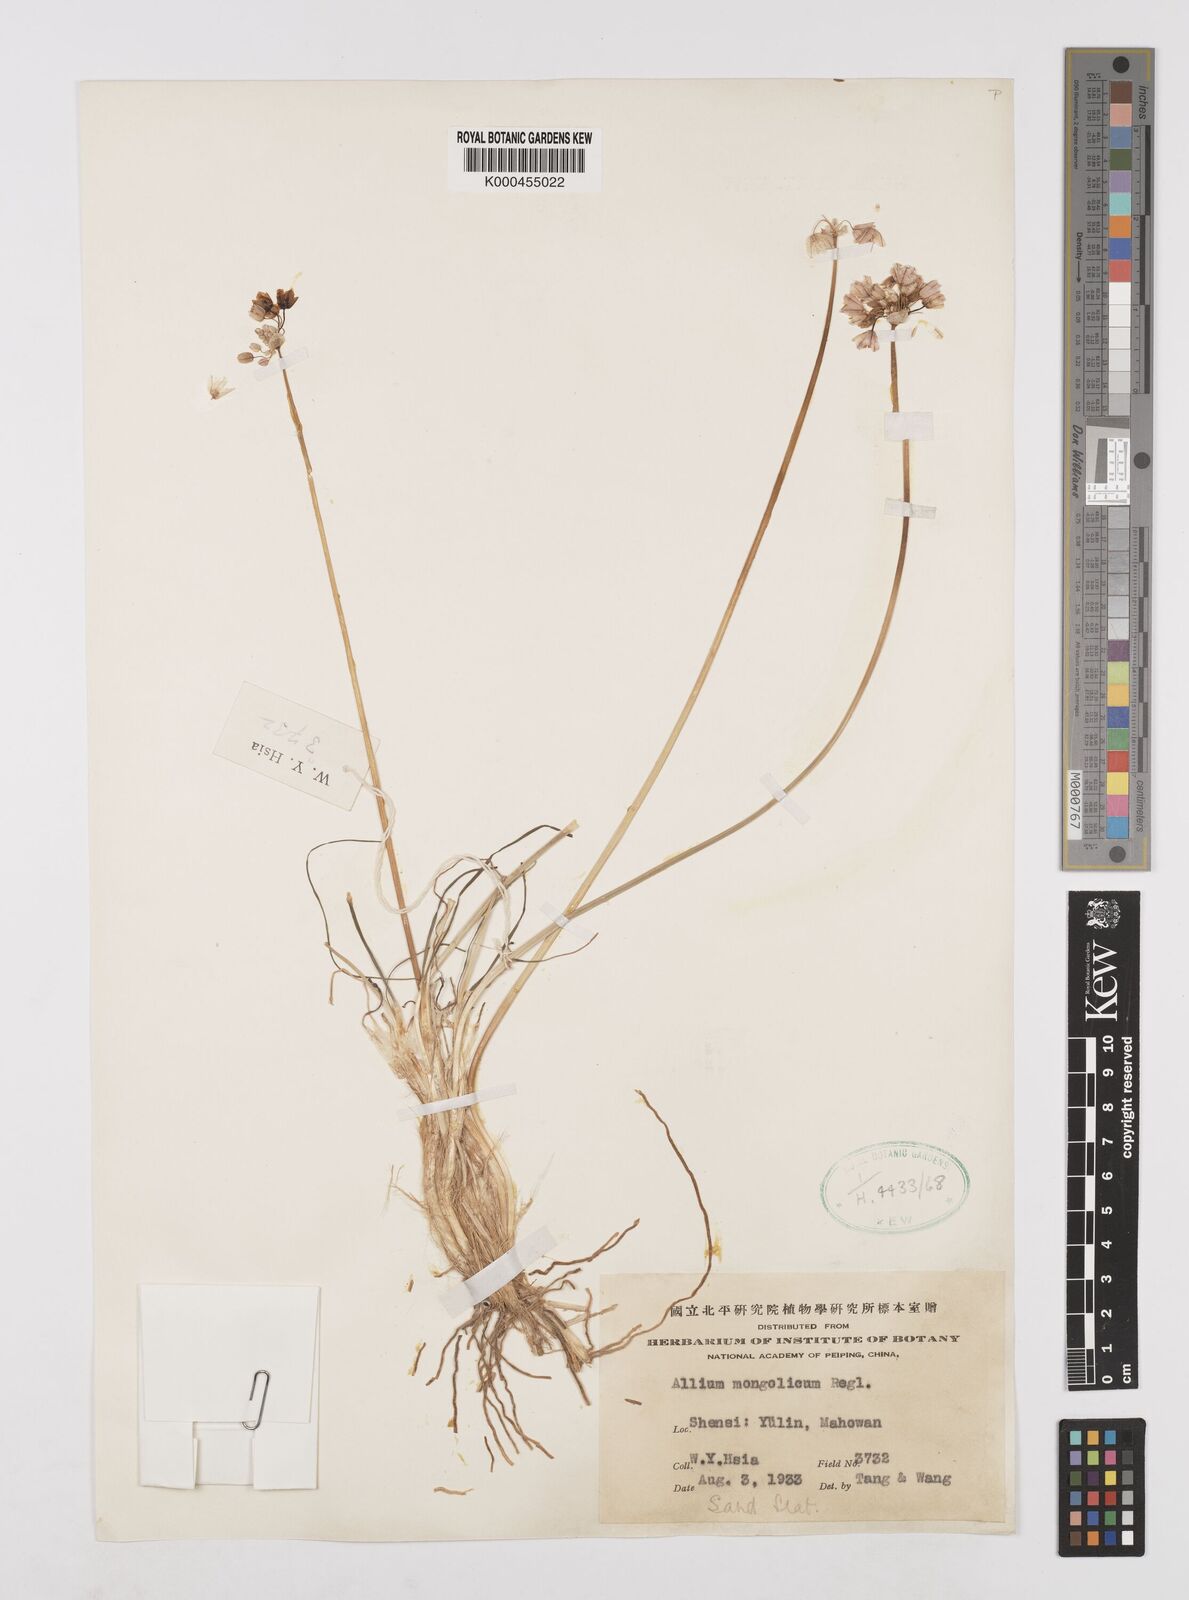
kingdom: Plantae
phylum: Tracheophyta
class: Liliopsida
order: Asparagales
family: Amaryllidaceae
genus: Allium
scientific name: Allium mongolicum
